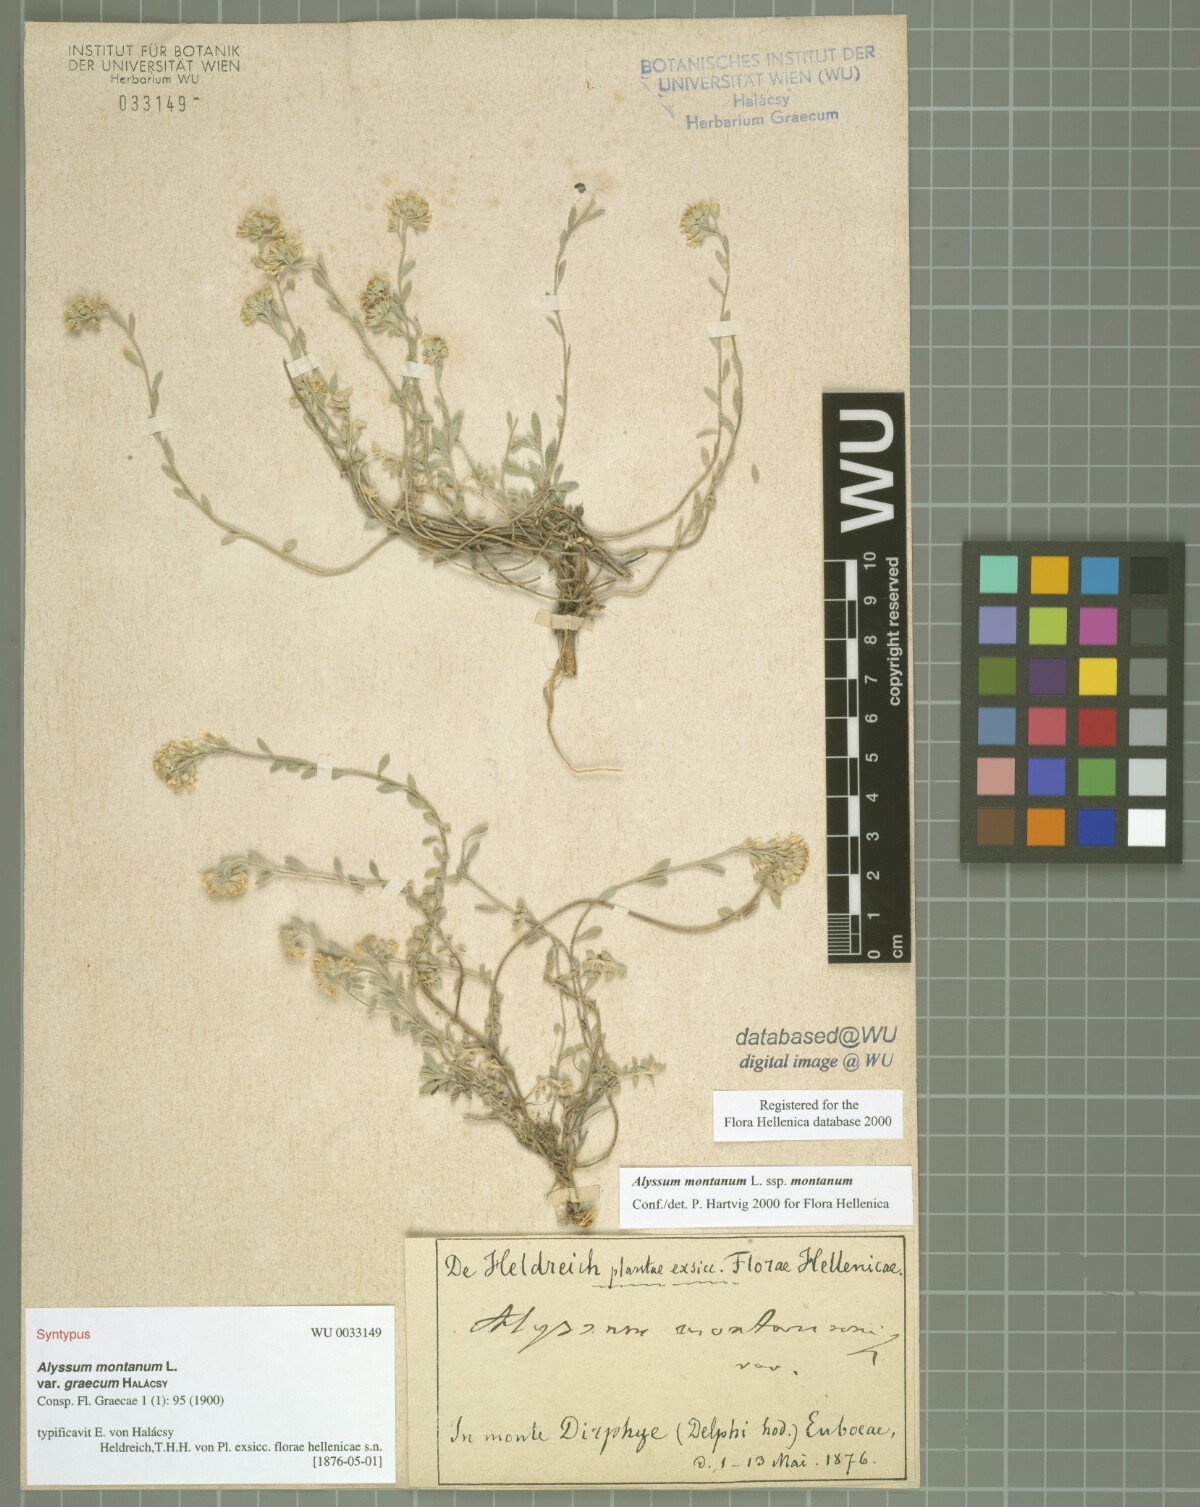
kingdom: Plantae
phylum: Tracheophyta
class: Magnoliopsida
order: Brassicales
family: Brassicaceae
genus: Alyssum
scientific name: Alyssum montanum
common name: Mountain alison
